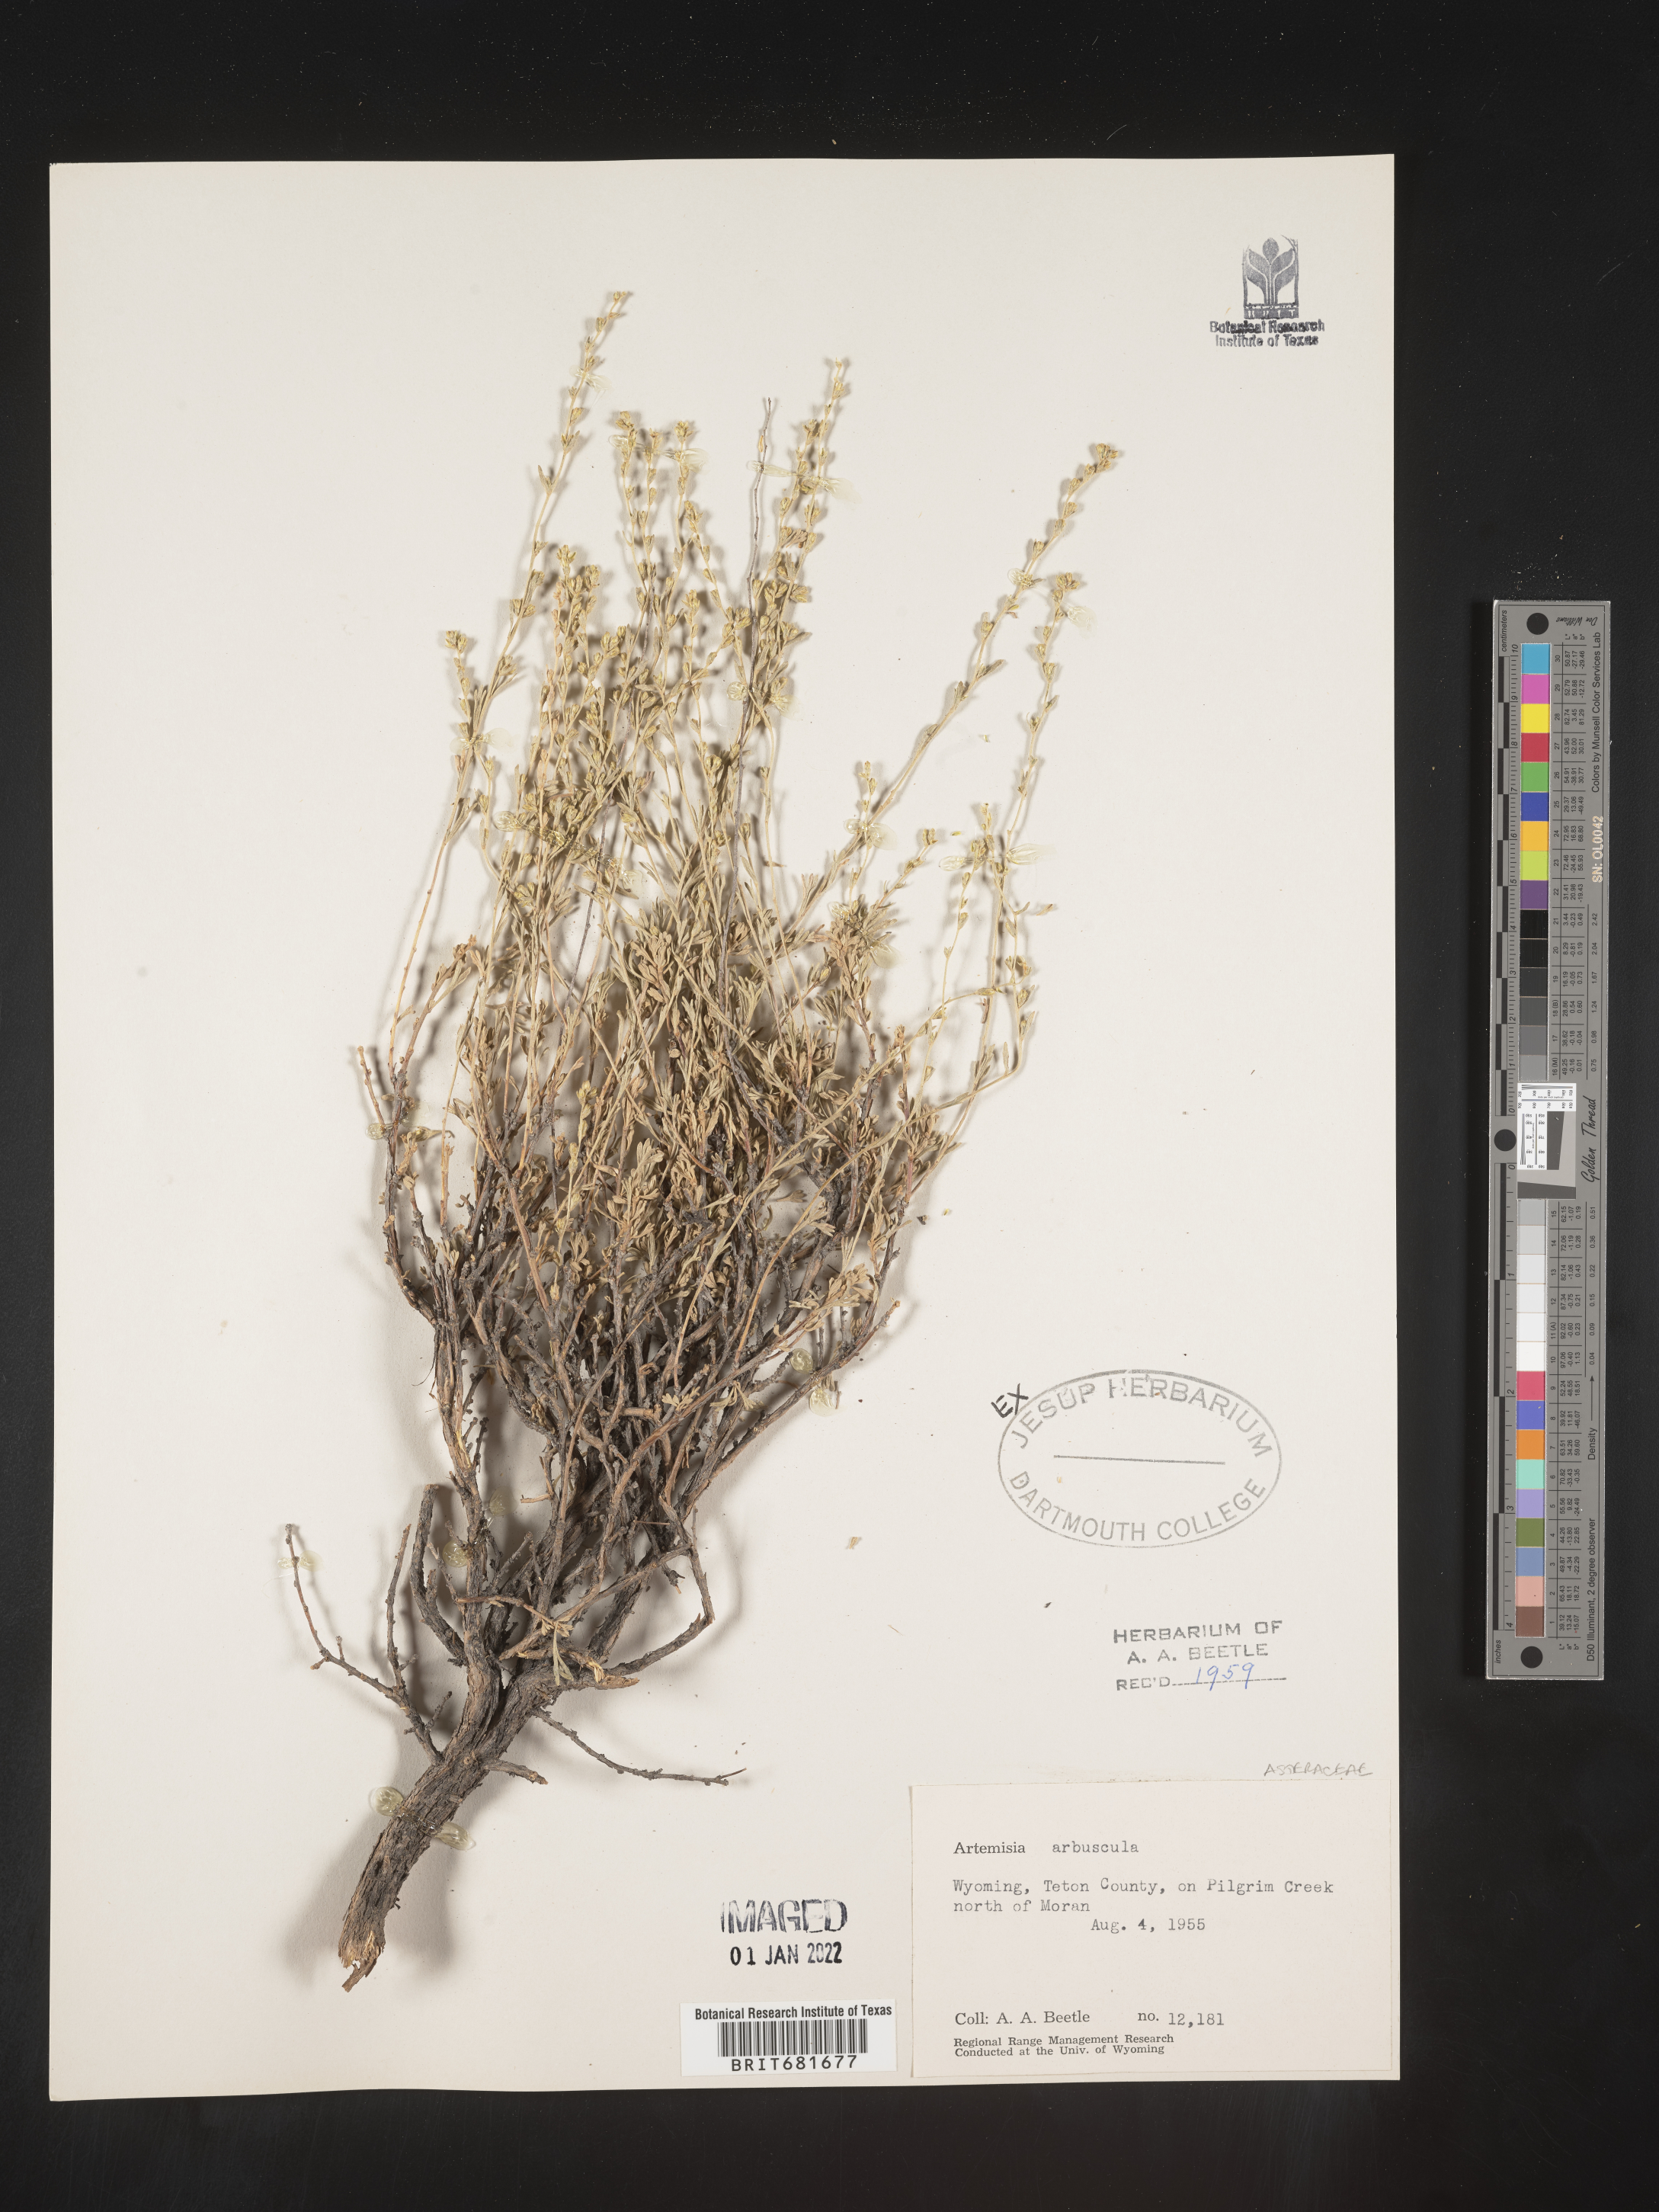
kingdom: Plantae
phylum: Tracheophyta
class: Magnoliopsida
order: Asterales
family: Asteraceae
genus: Artemisia
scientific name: Artemisia arbuscula
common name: Sagebrush
